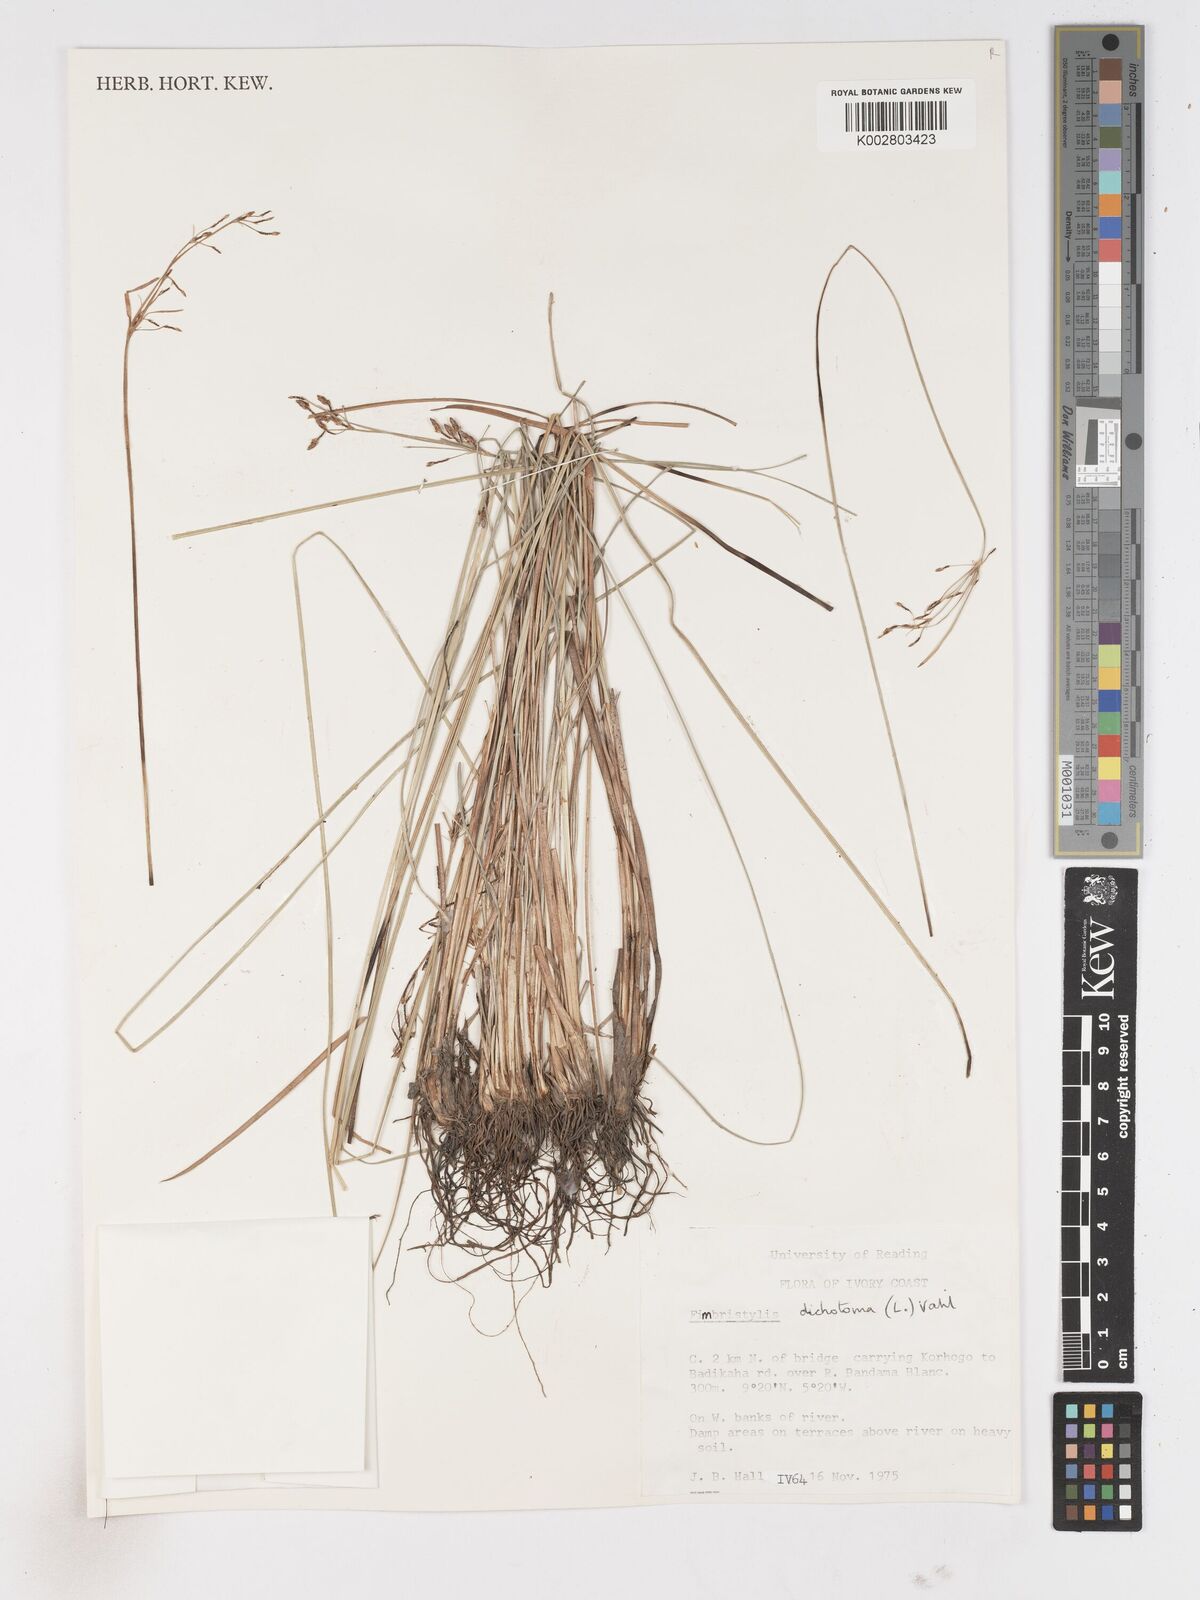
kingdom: Plantae
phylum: Tracheophyta
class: Liliopsida
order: Poales
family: Cyperaceae
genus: Fimbristylis
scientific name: Fimbristylis dichotoma
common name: Forked fimbry
